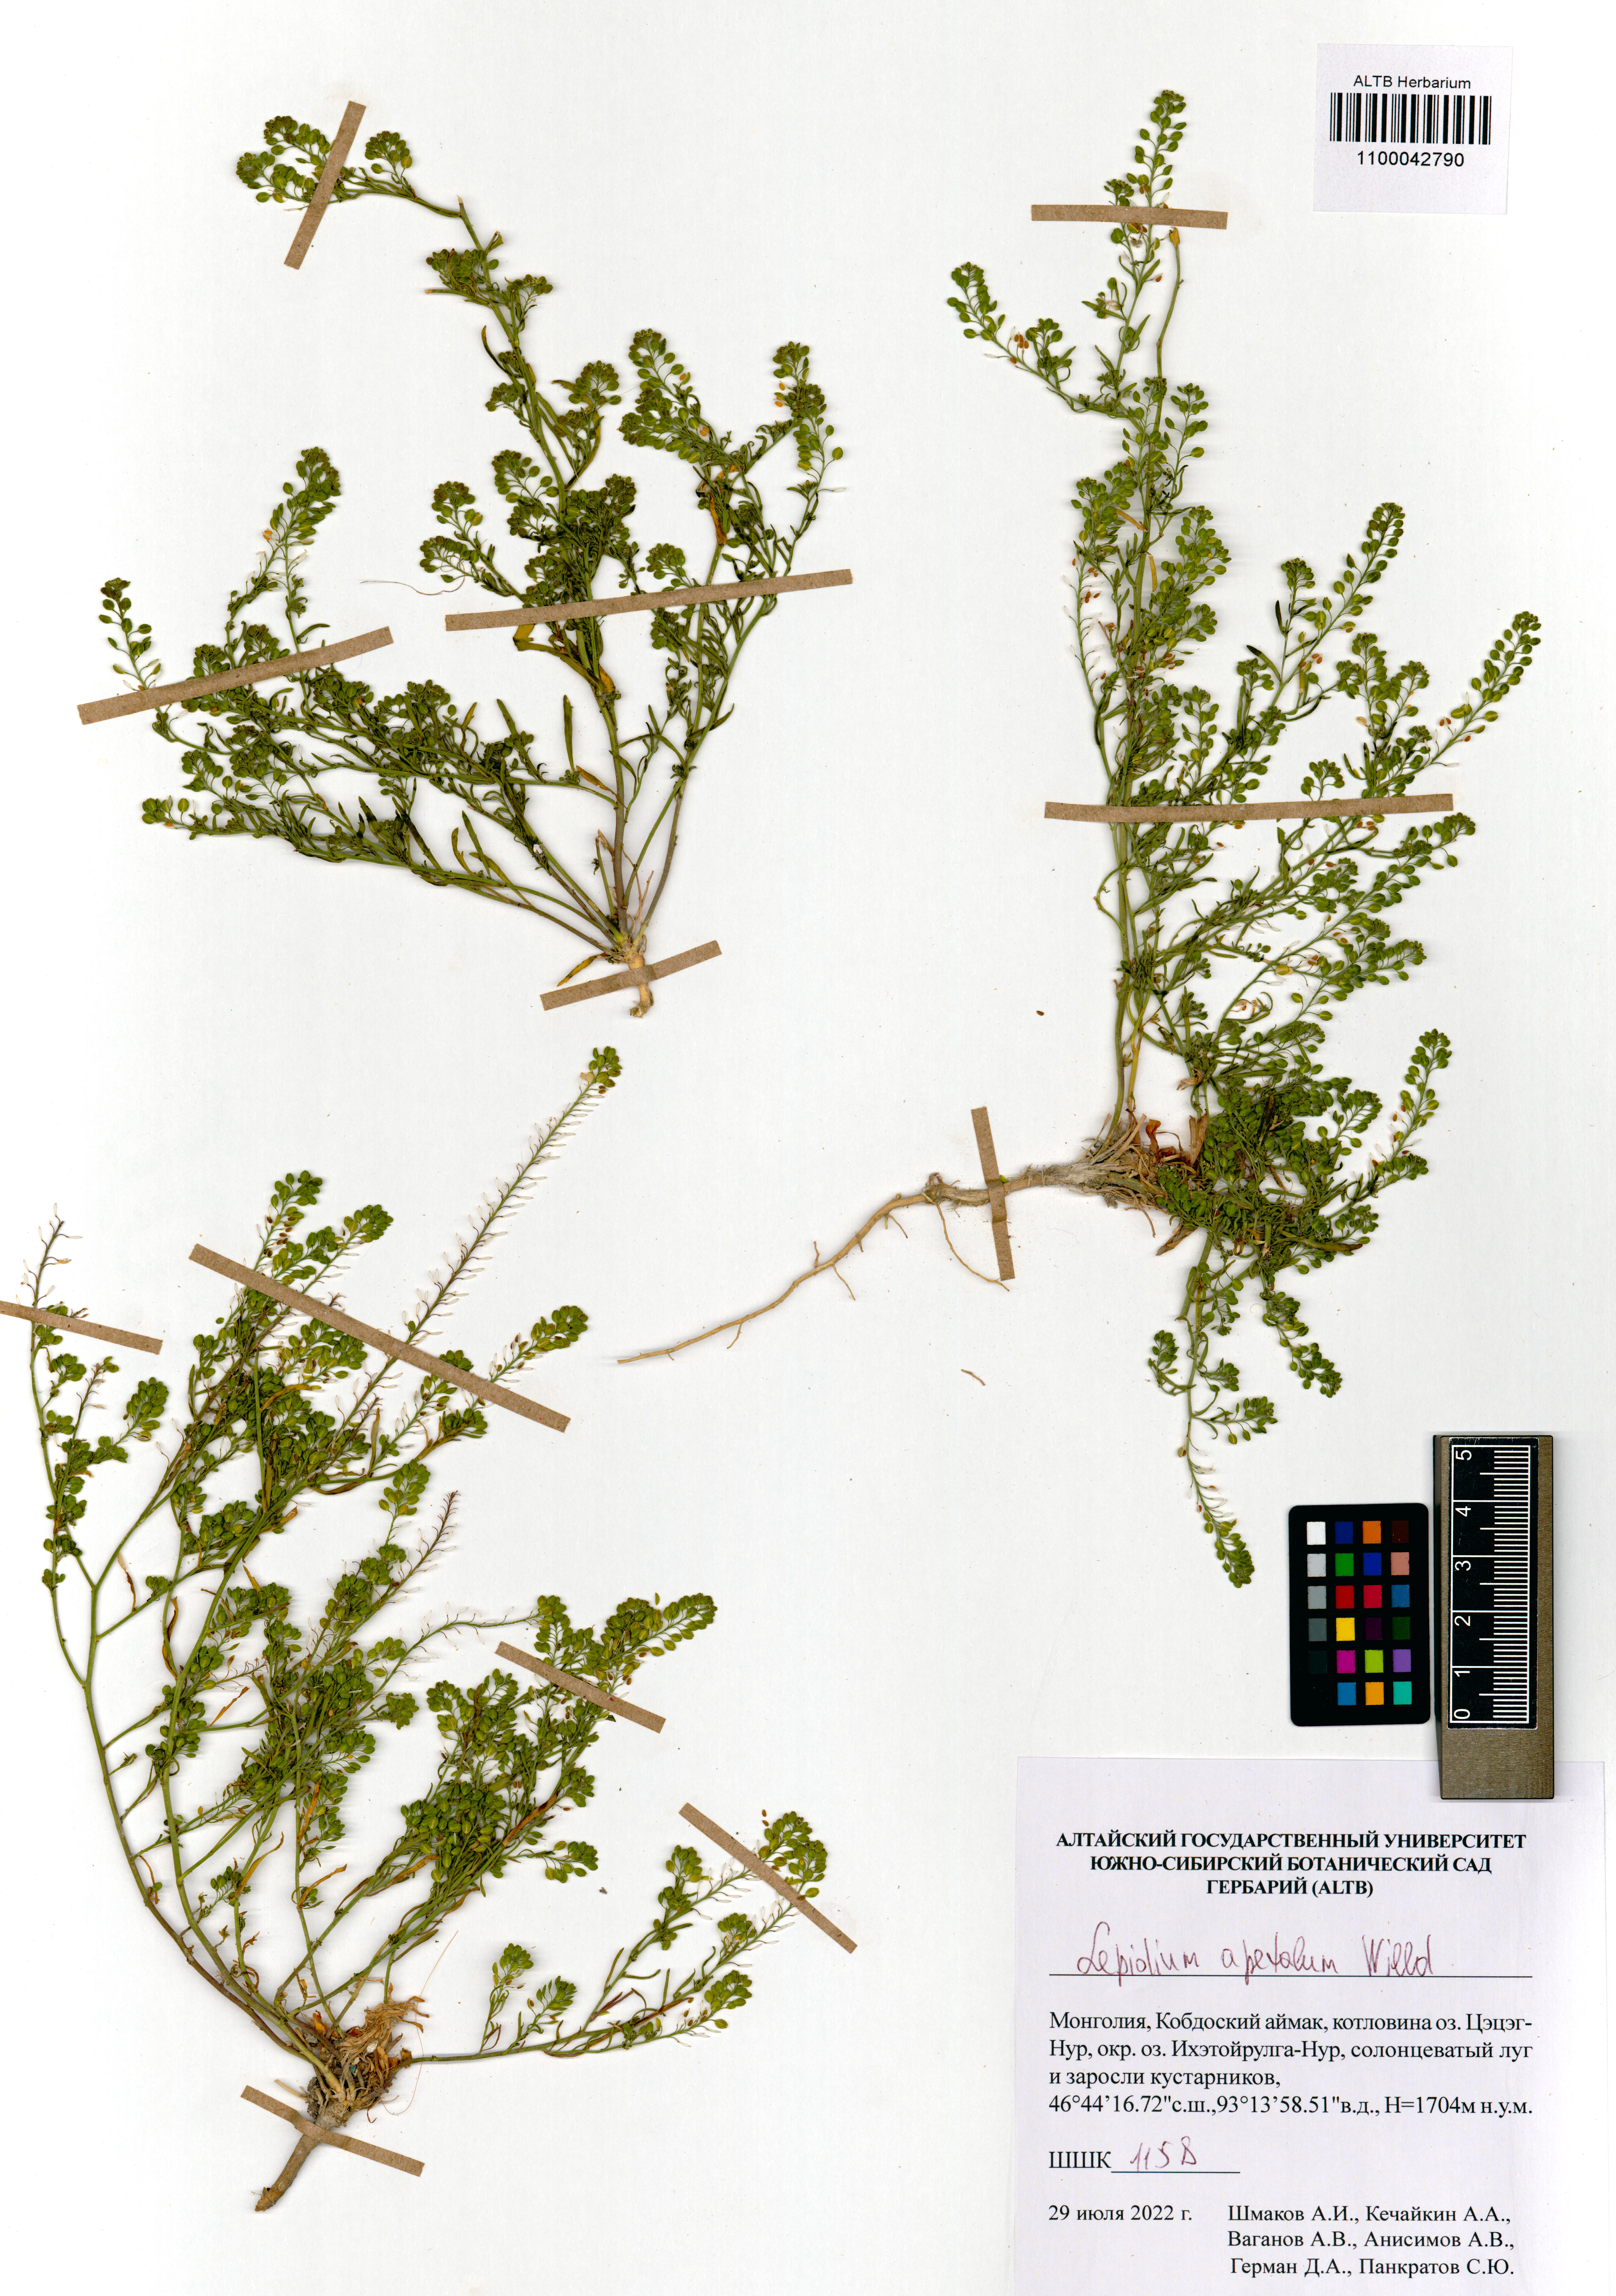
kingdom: Plantae
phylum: Tracheophyta
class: Magnoliopsida
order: Brassicales
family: Brassicaceae
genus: Lepidium
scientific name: Lepidium apetalum
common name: Pepperweed
